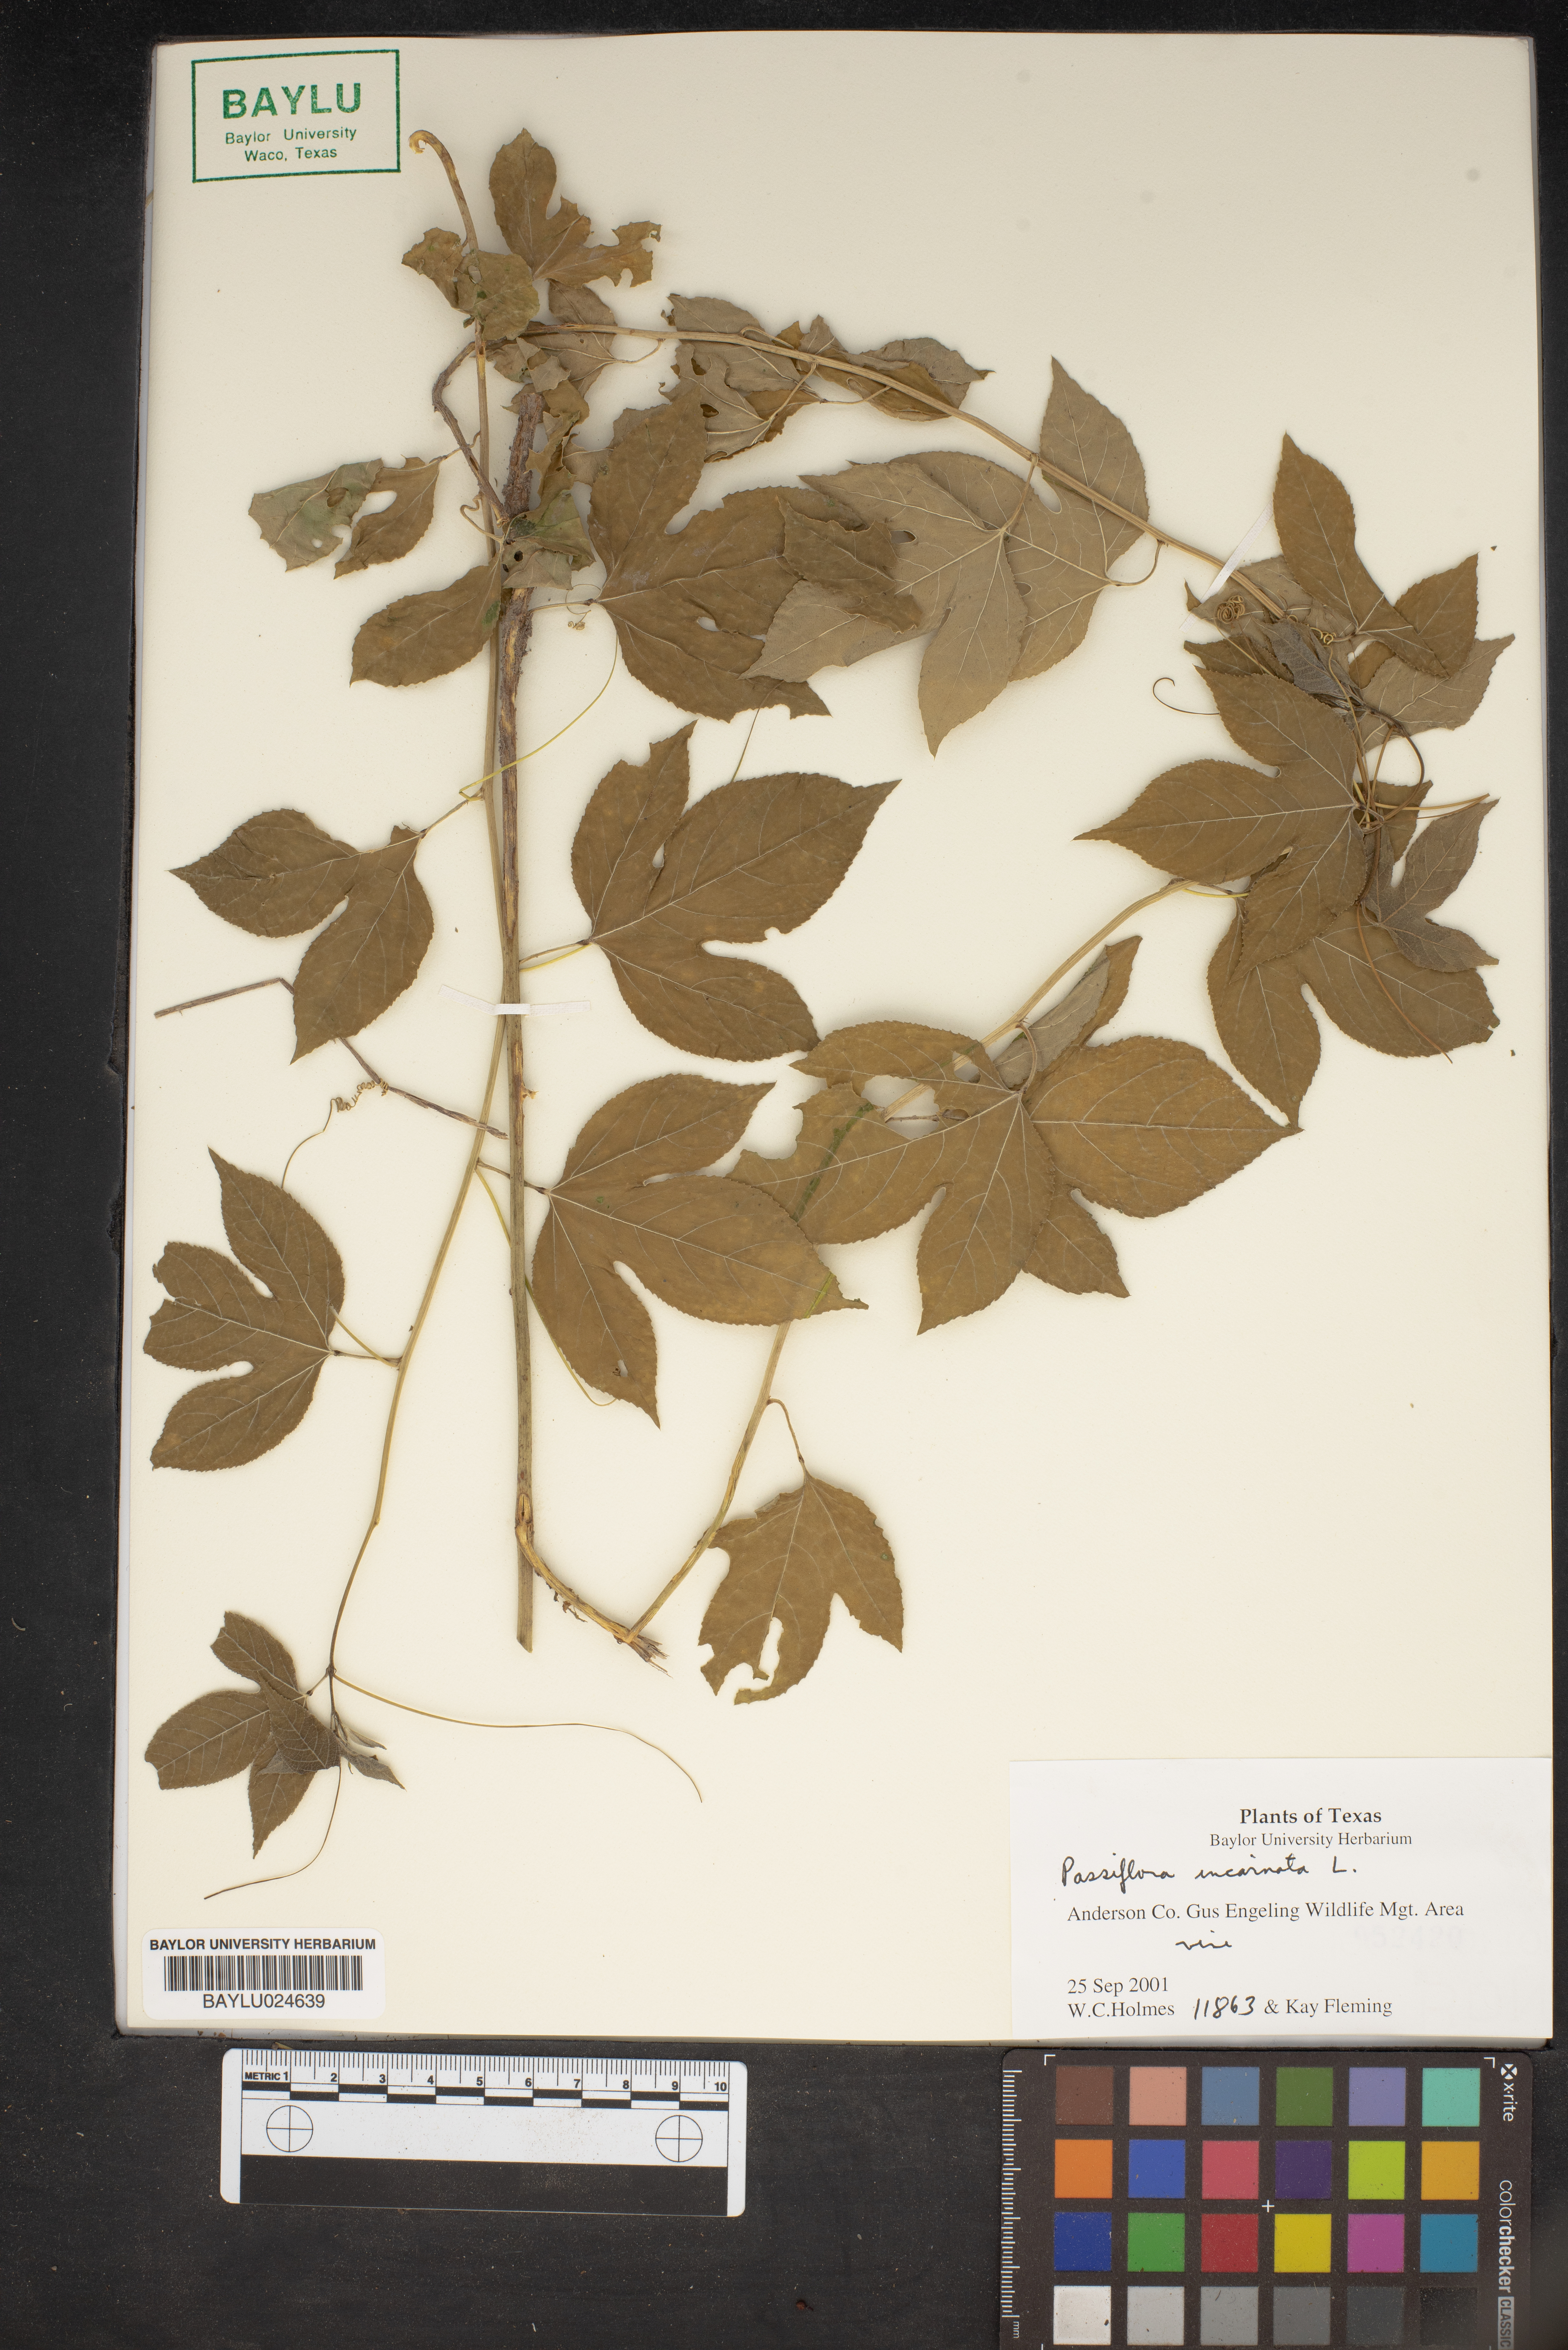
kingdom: Plantae
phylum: Tracheophyta
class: Magnoliopsida
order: Malpighiales
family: Passifloraceae
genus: Passiflora
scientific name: Passiflora incarnata
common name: Apricot-vine
